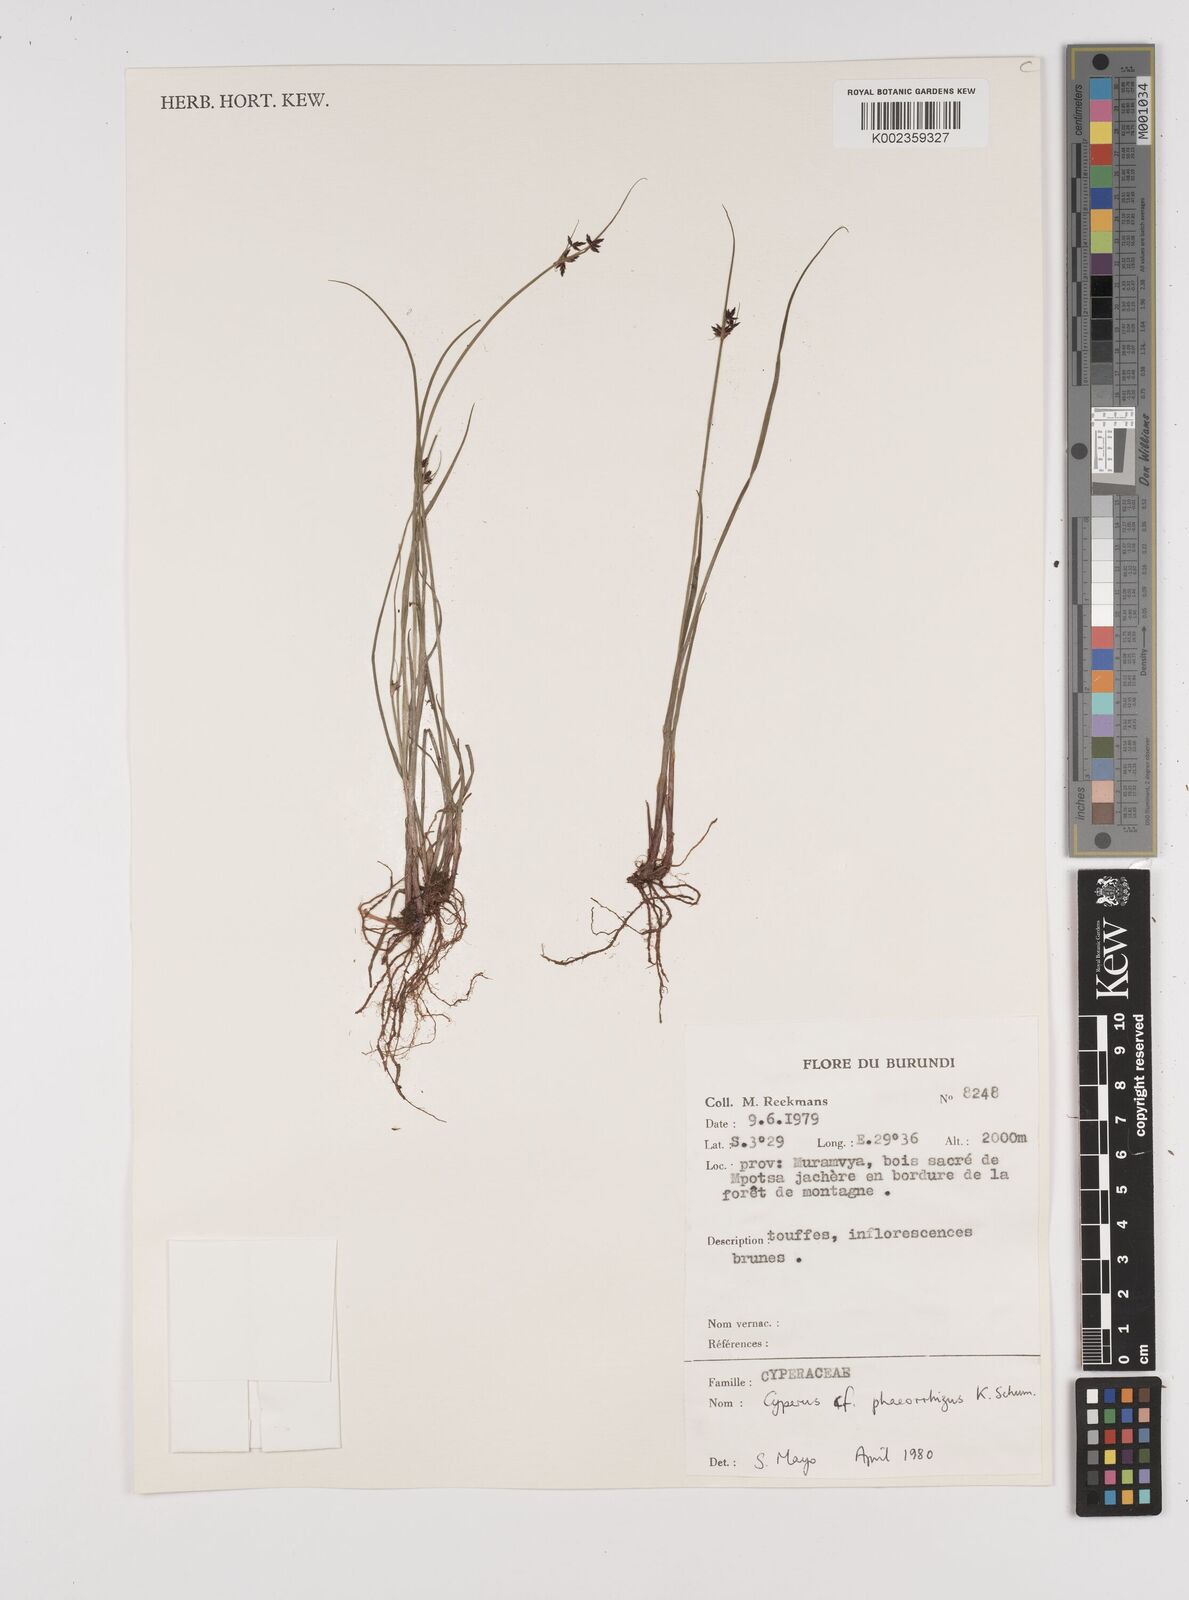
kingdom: Plantae
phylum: Tracheophyta
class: Liliopsida
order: Poales
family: Cyperaceae
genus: Cyperus
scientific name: Cyperus haspan
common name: Haspan flatsedge
